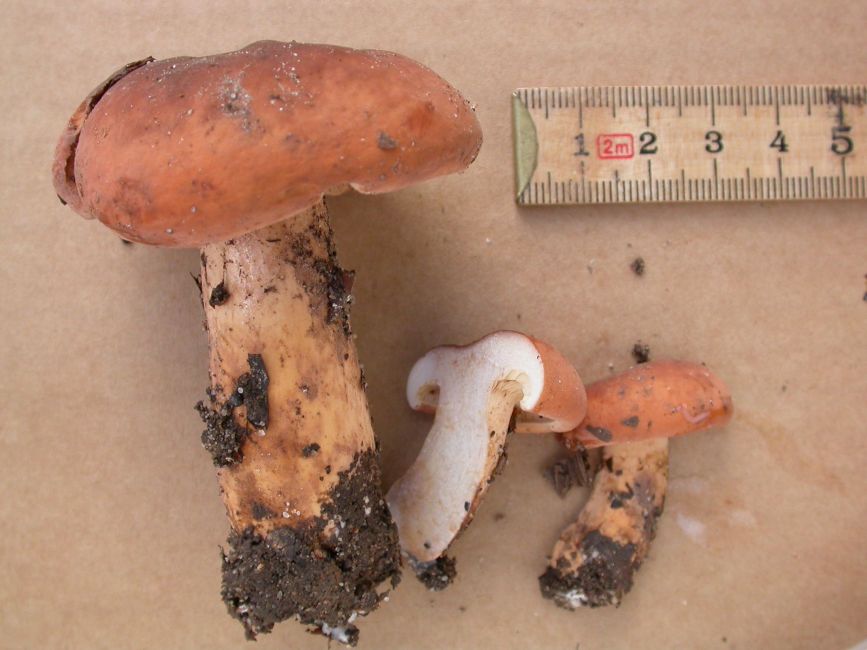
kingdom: Fungi
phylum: Basidiomycota
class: Agaricomycetes
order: Russulales
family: Russulaceae
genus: Lactifluus
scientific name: Lactifluus
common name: mælkehat
